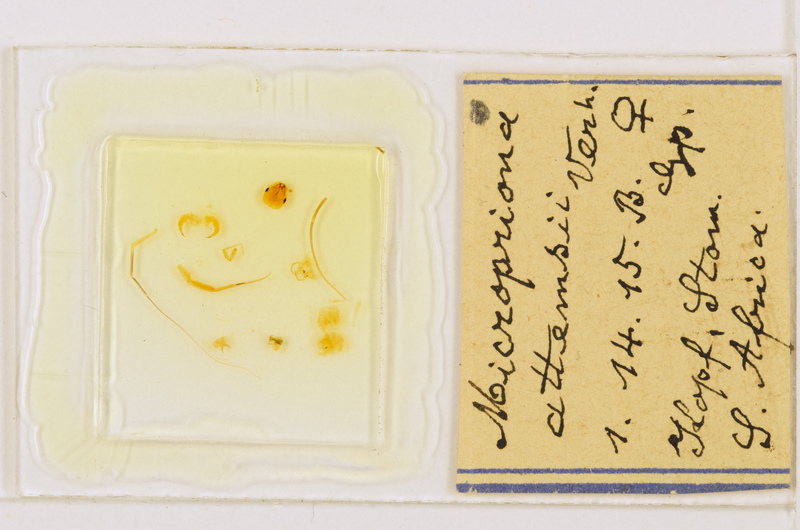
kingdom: Animalia
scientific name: Animalia
